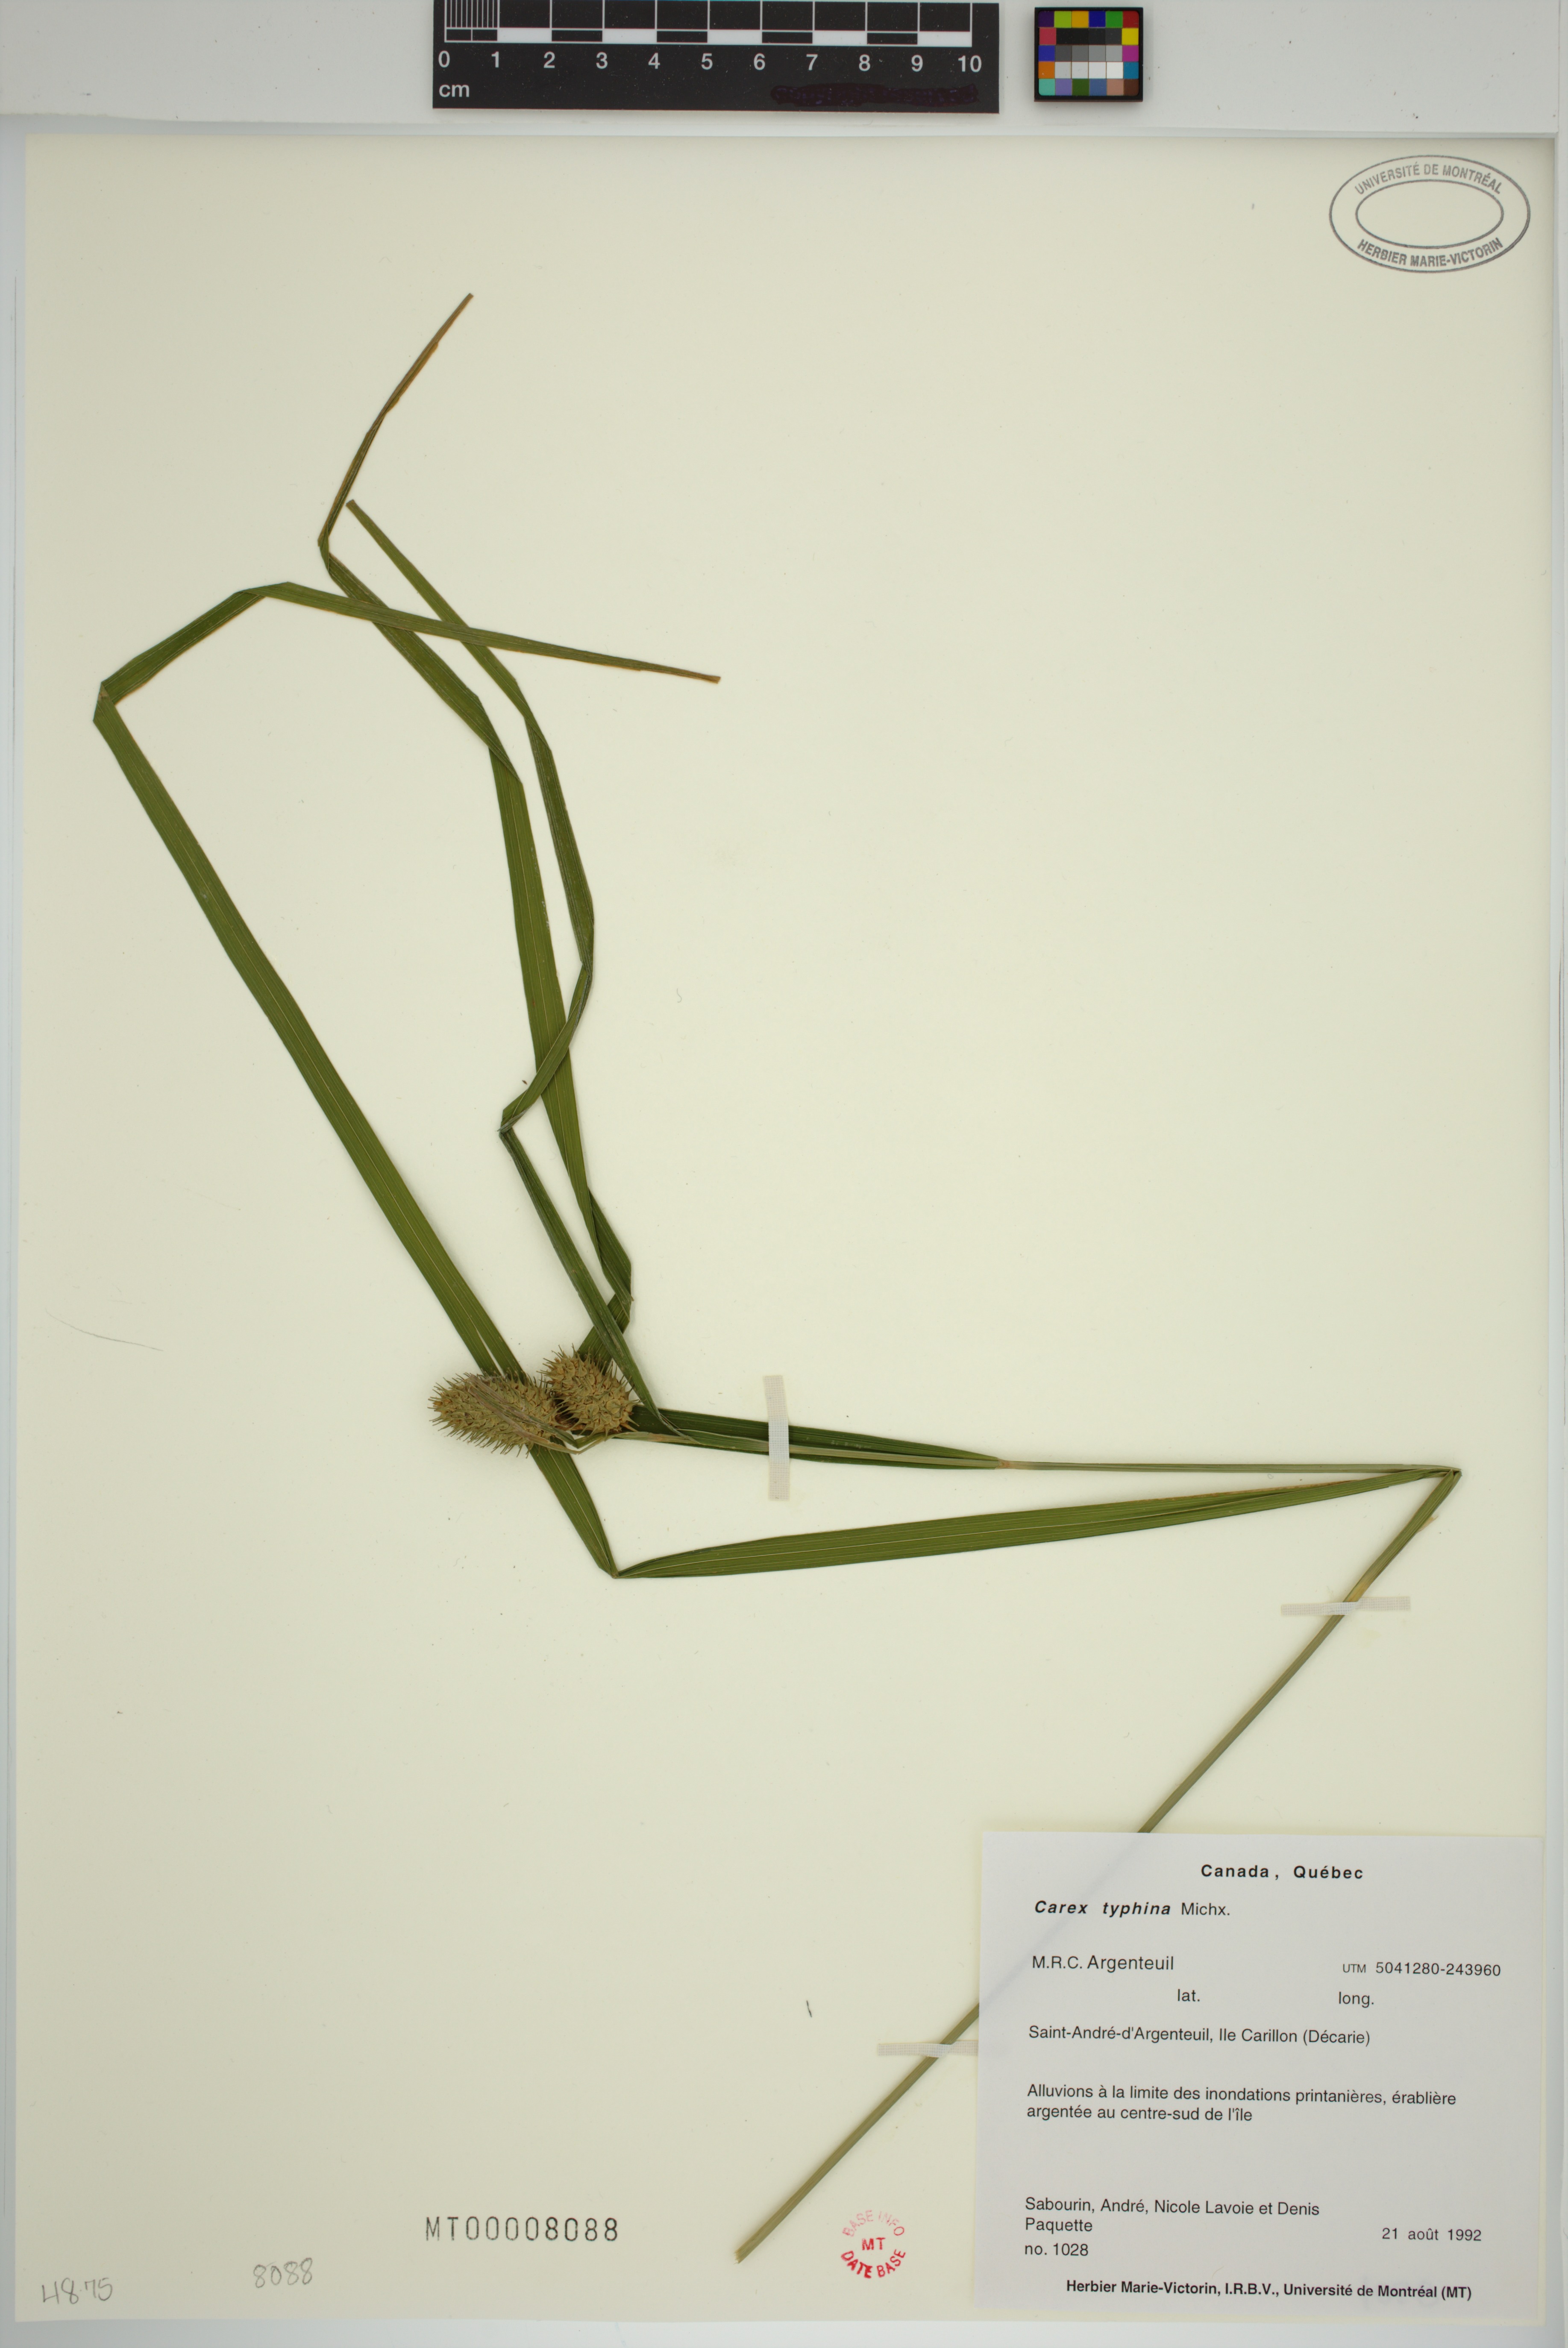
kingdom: Plantae
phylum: Tracheophyta
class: Liliopsida
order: Poales
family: Cyperaceae
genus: Carex
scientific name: Carex typhina
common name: Cattail sedge
